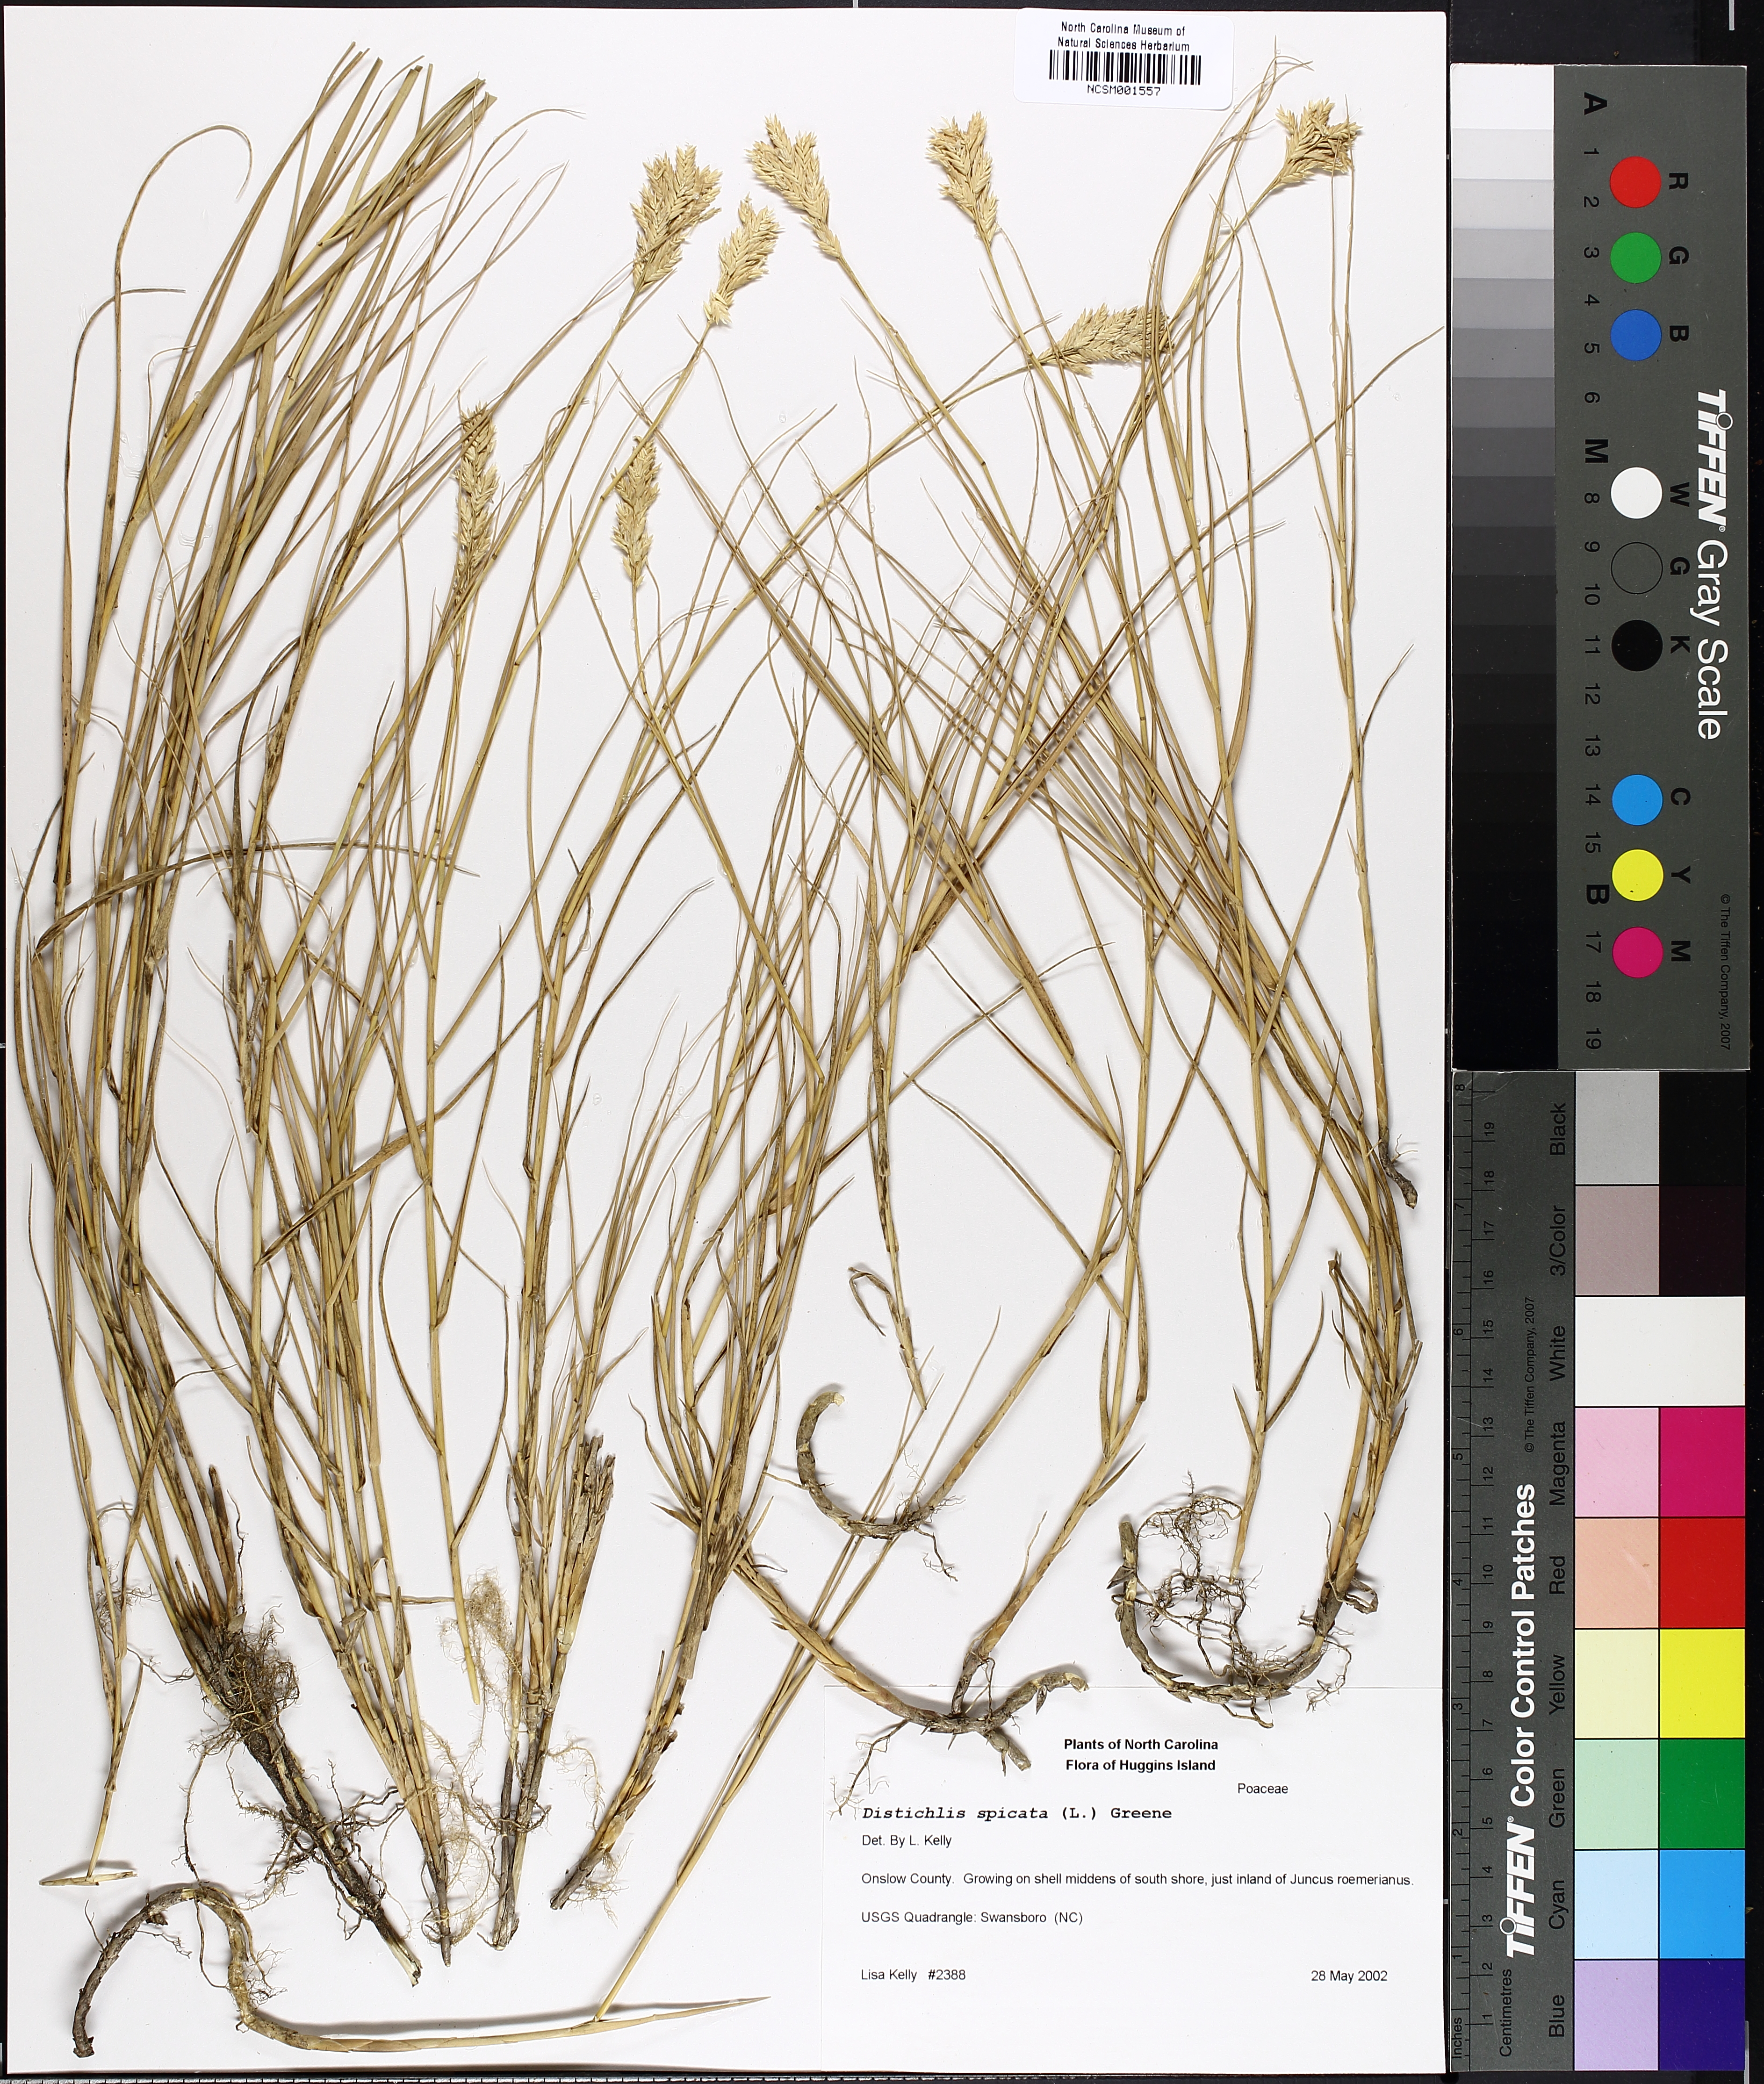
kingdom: Plantae
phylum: Tracheophyta
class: Liliopsida
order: Poales
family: Poaceae
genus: Distichlis
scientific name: Distichlis spicata
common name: Saltgrass
